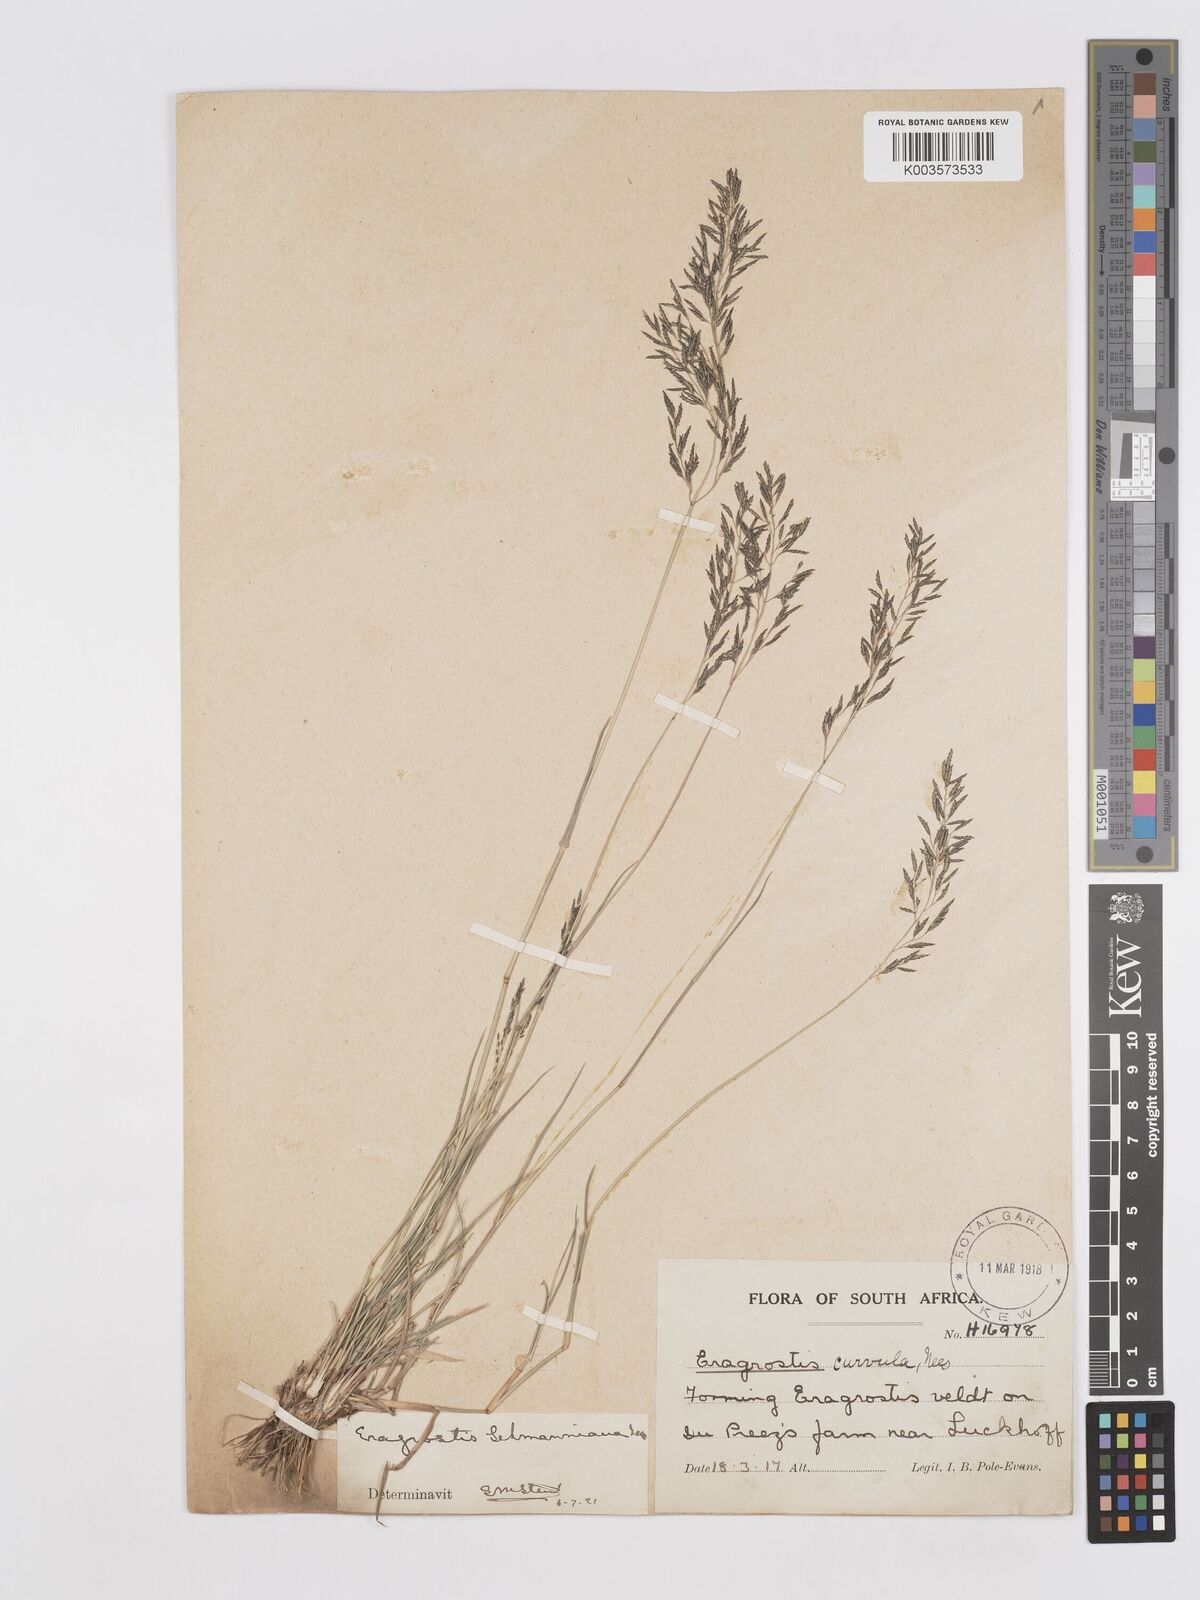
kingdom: Plantae
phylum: Tracheophyta
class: Liliopsida
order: Poales
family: Poaceae
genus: Eragrostis
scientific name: Eragrostis lehmanniana
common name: Lehmann lovegrass
